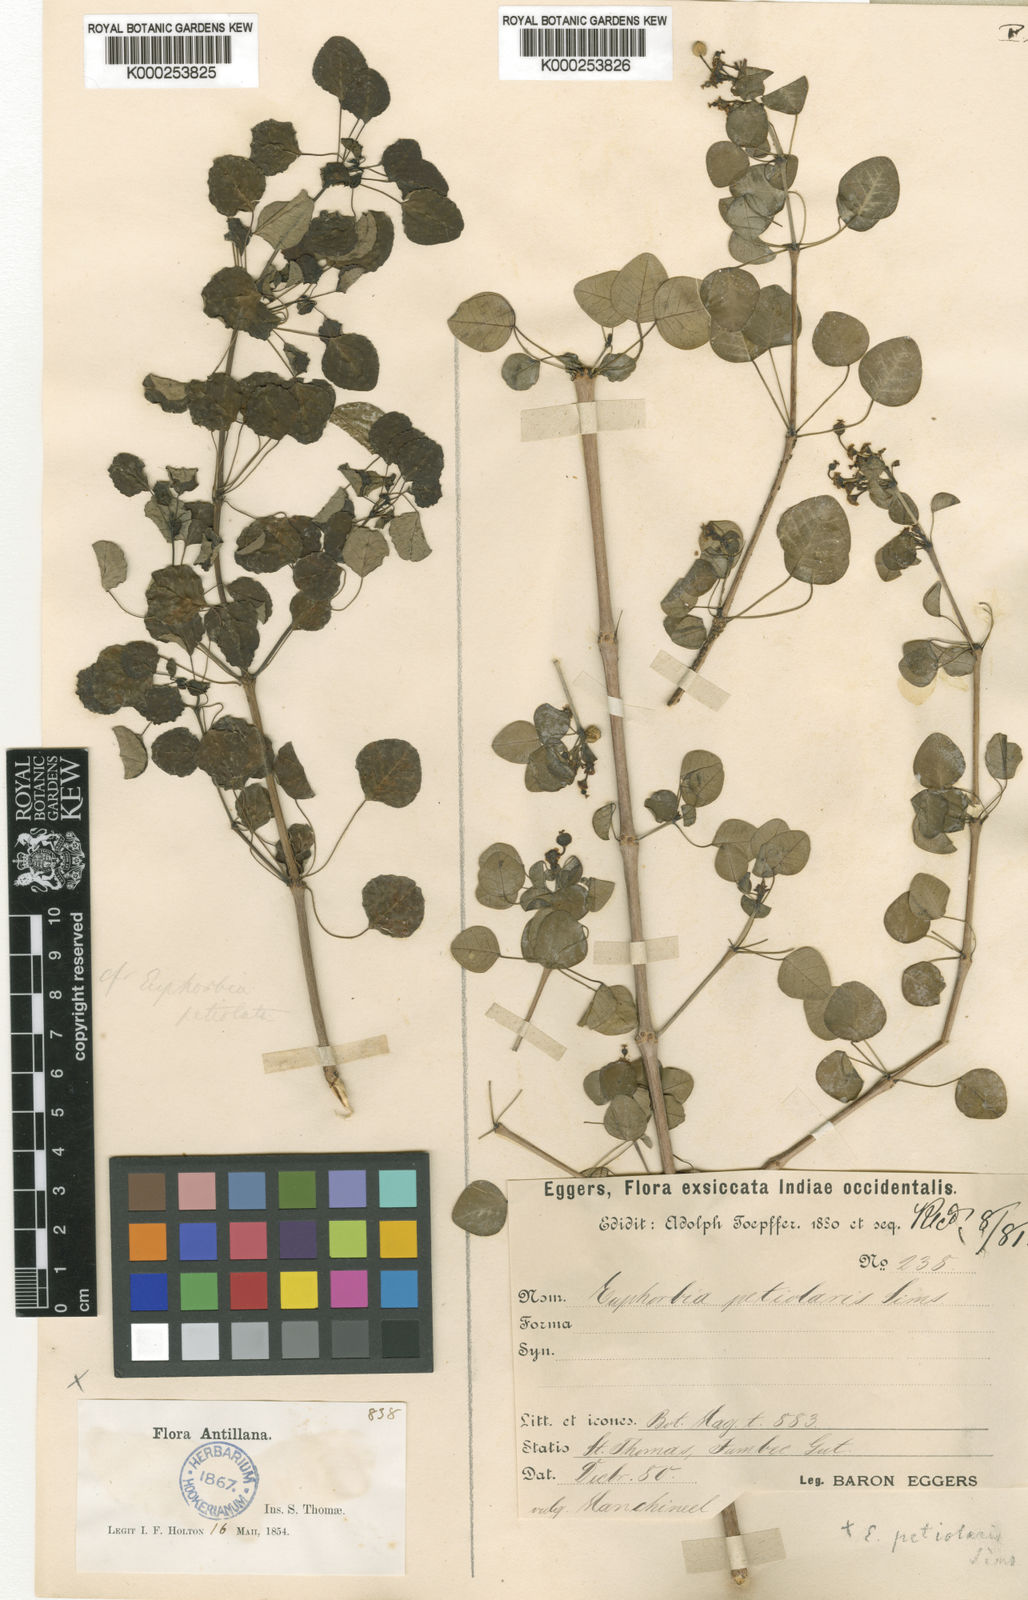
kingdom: Plantae
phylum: Tracheophyta
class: Magnoliopsida
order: Malpighiales
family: Euphorbiaceae
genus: Euphorbia
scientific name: Euphorbia petiolaris
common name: Black manchineel
